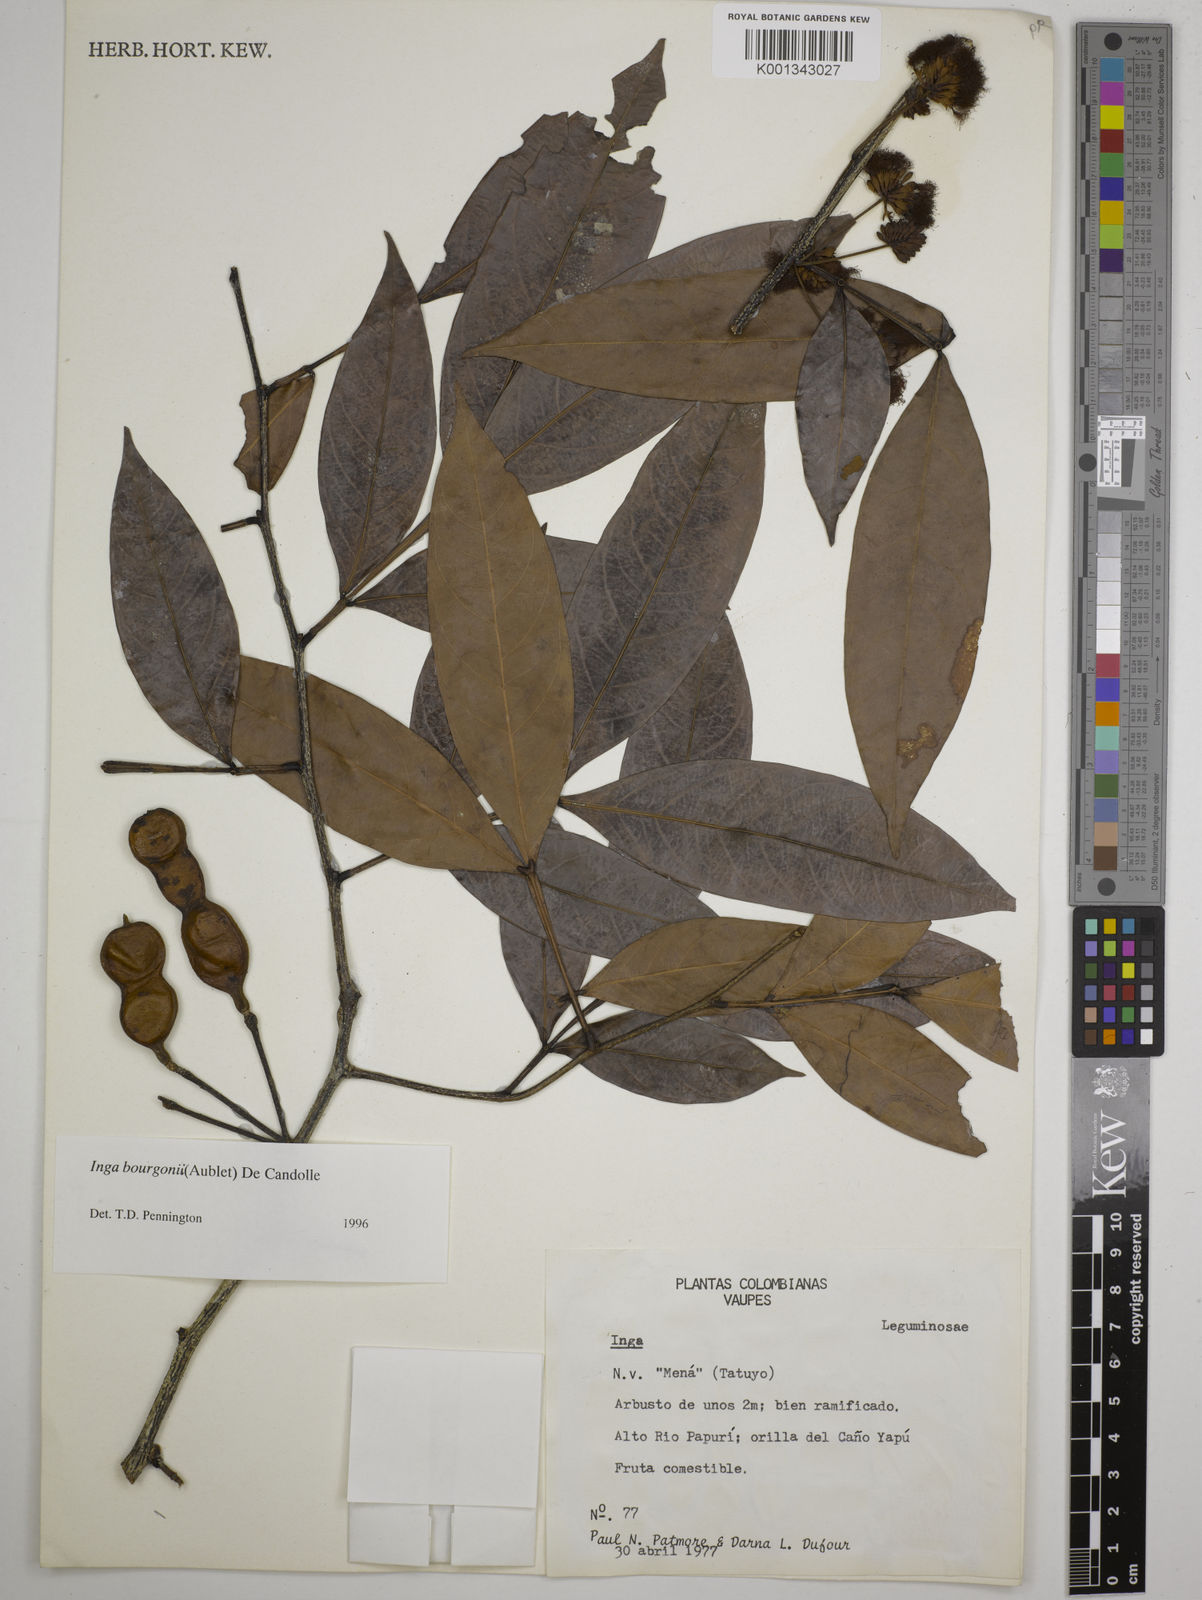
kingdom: Plantae
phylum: Tracheophyta
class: Magnoliopsida
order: Fabales
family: Fabaceae
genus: Inga
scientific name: Inga bourgoni
